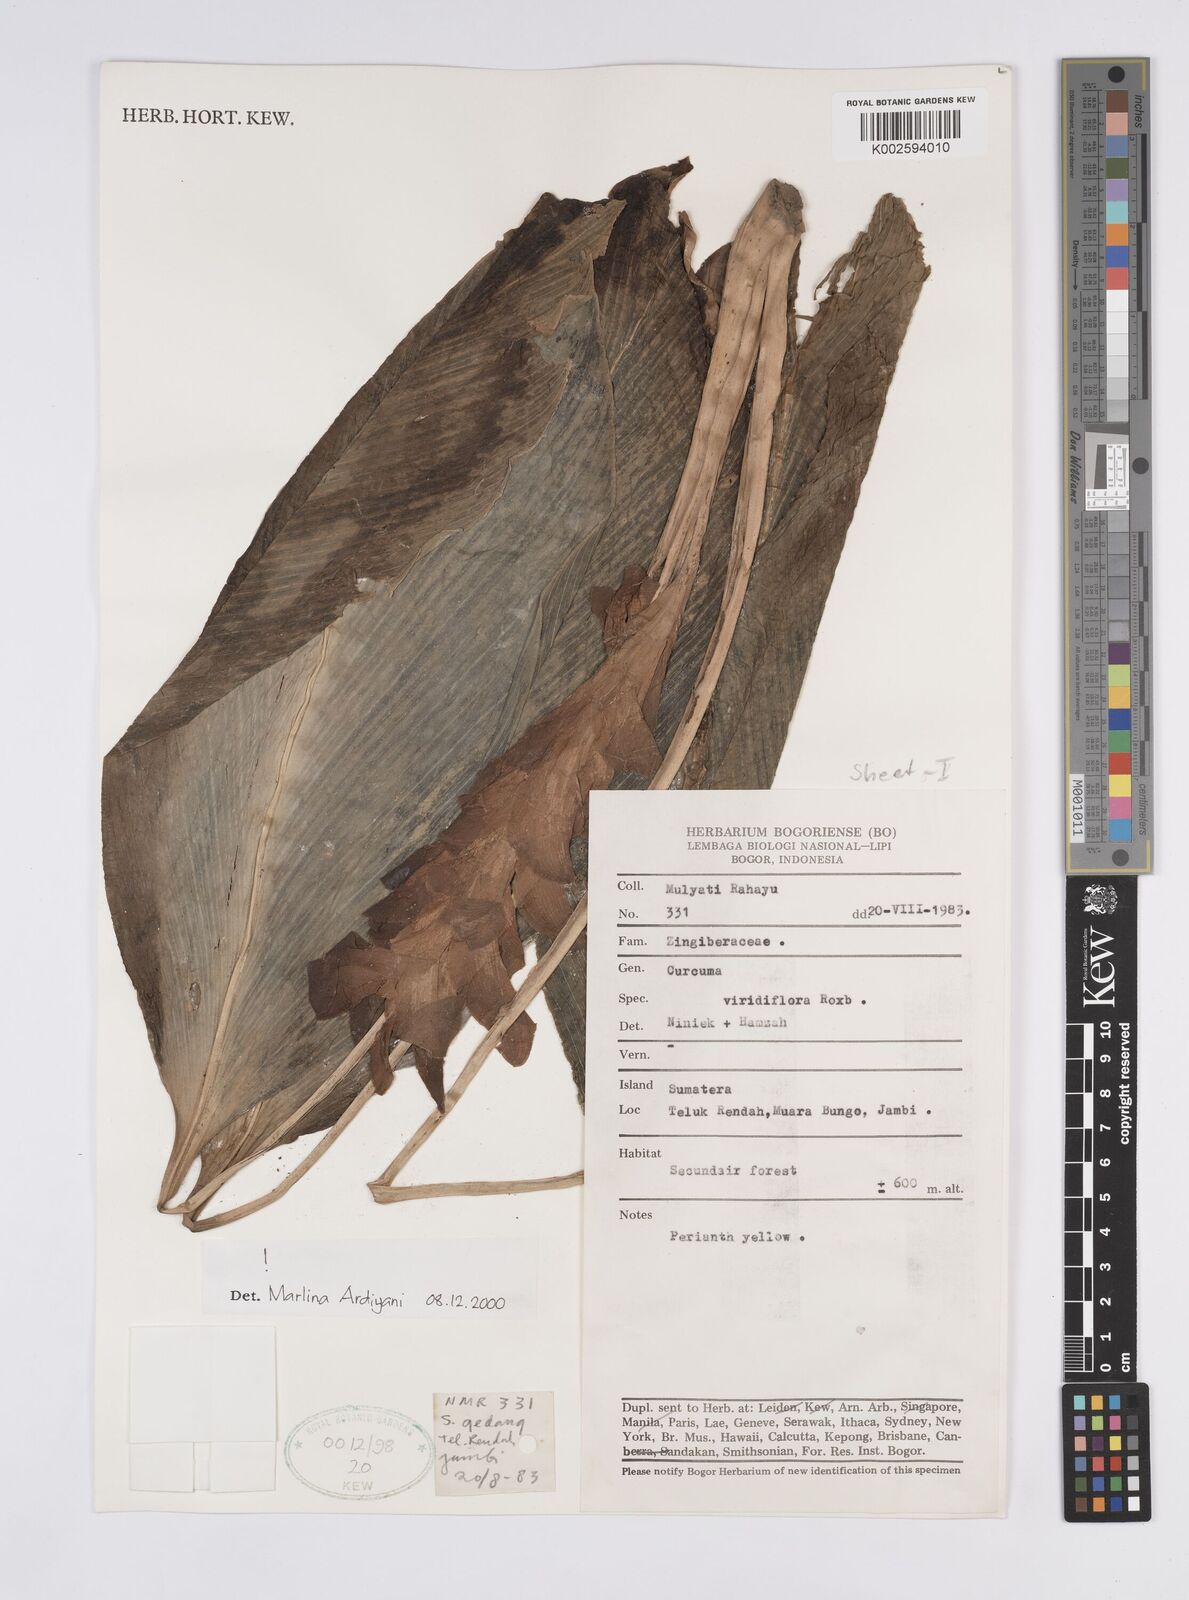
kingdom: Plantae
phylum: Tracheophyta
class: Liliopsida
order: Zingiberales
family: Zingiberaceae
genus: Curcuma
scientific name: Curcuma viridiflora
